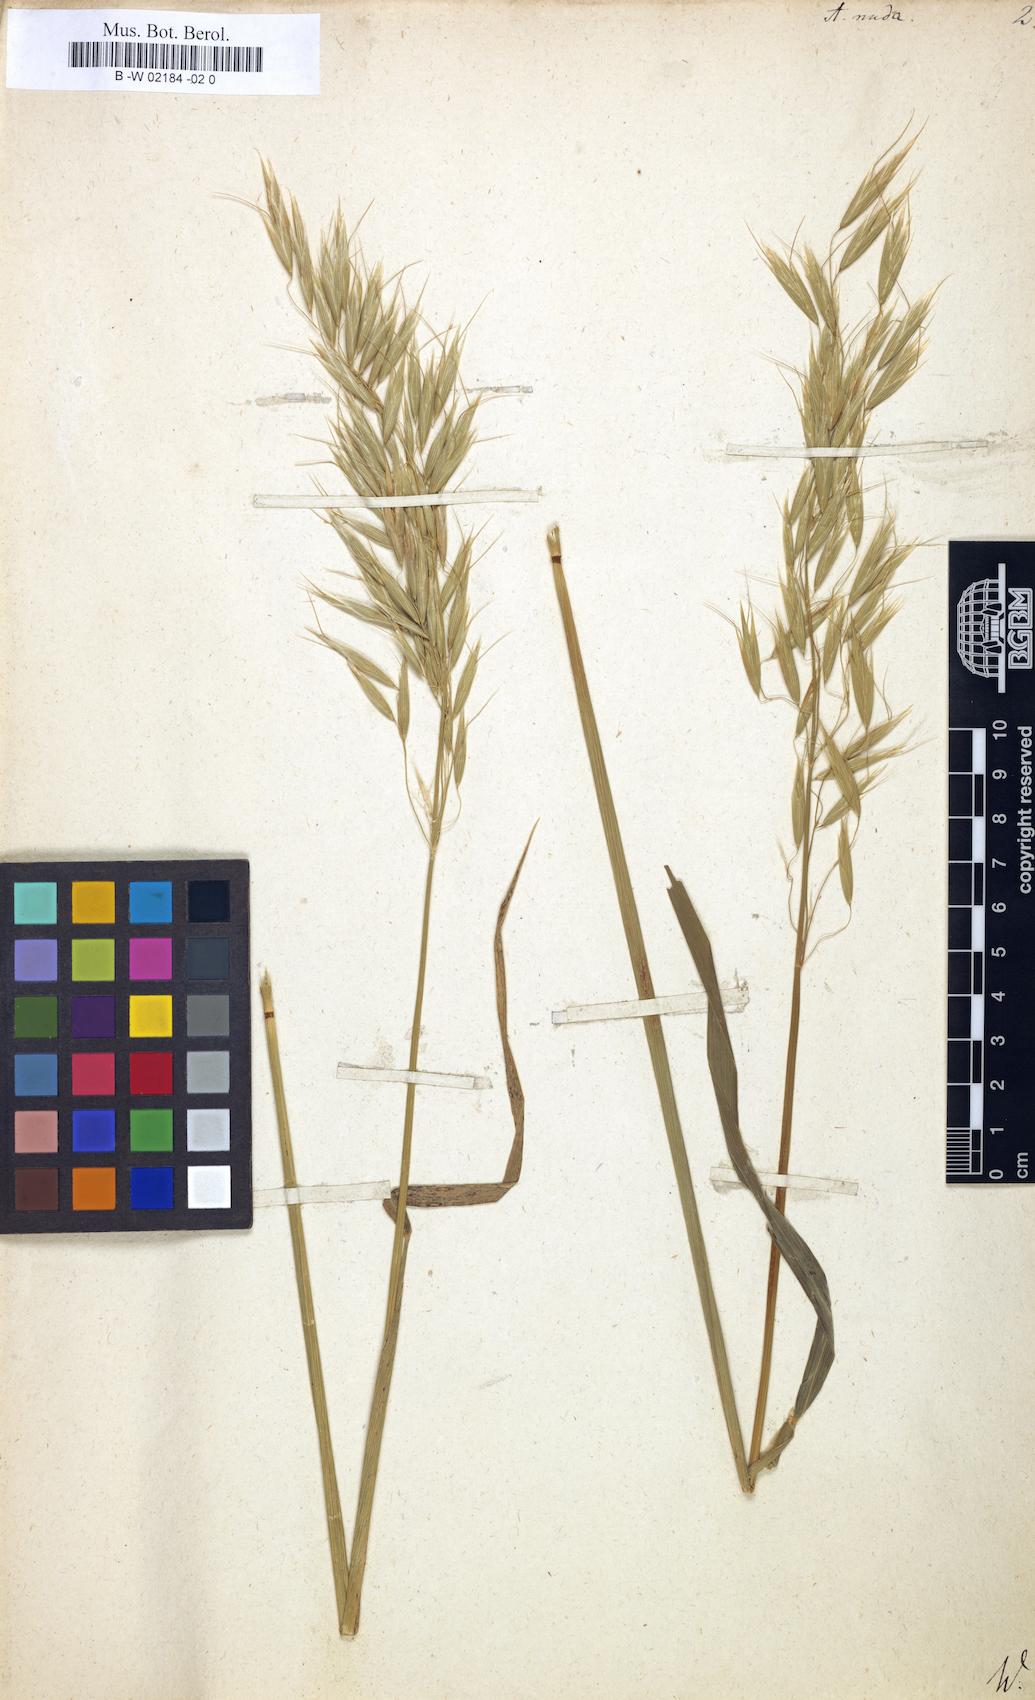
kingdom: Plantae
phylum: Tracheophyta
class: Liliopsida
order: Poales
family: Poaceae
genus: Avena
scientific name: Avena nuda
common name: Naked oat
